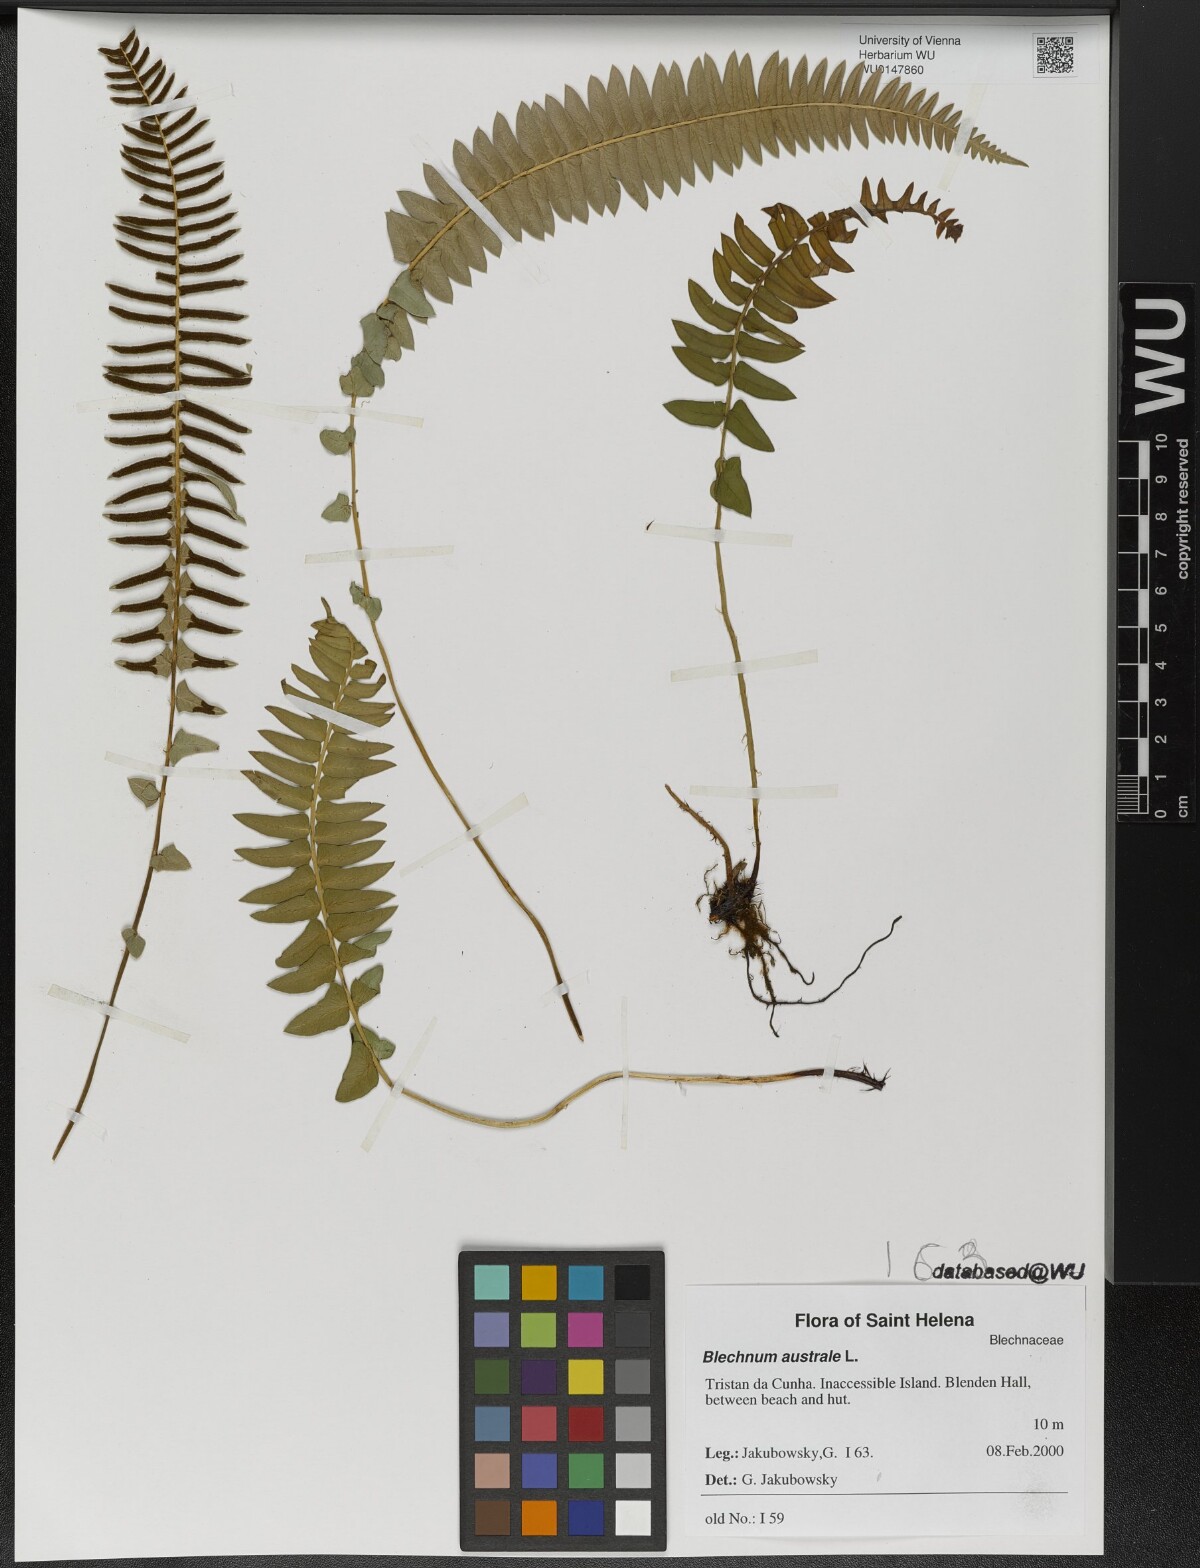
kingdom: Plantae
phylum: Tracheophyta
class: Polypodiopsida
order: Polypodiales
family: Blechnaceae
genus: Blechnum
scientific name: Blechnum australe
